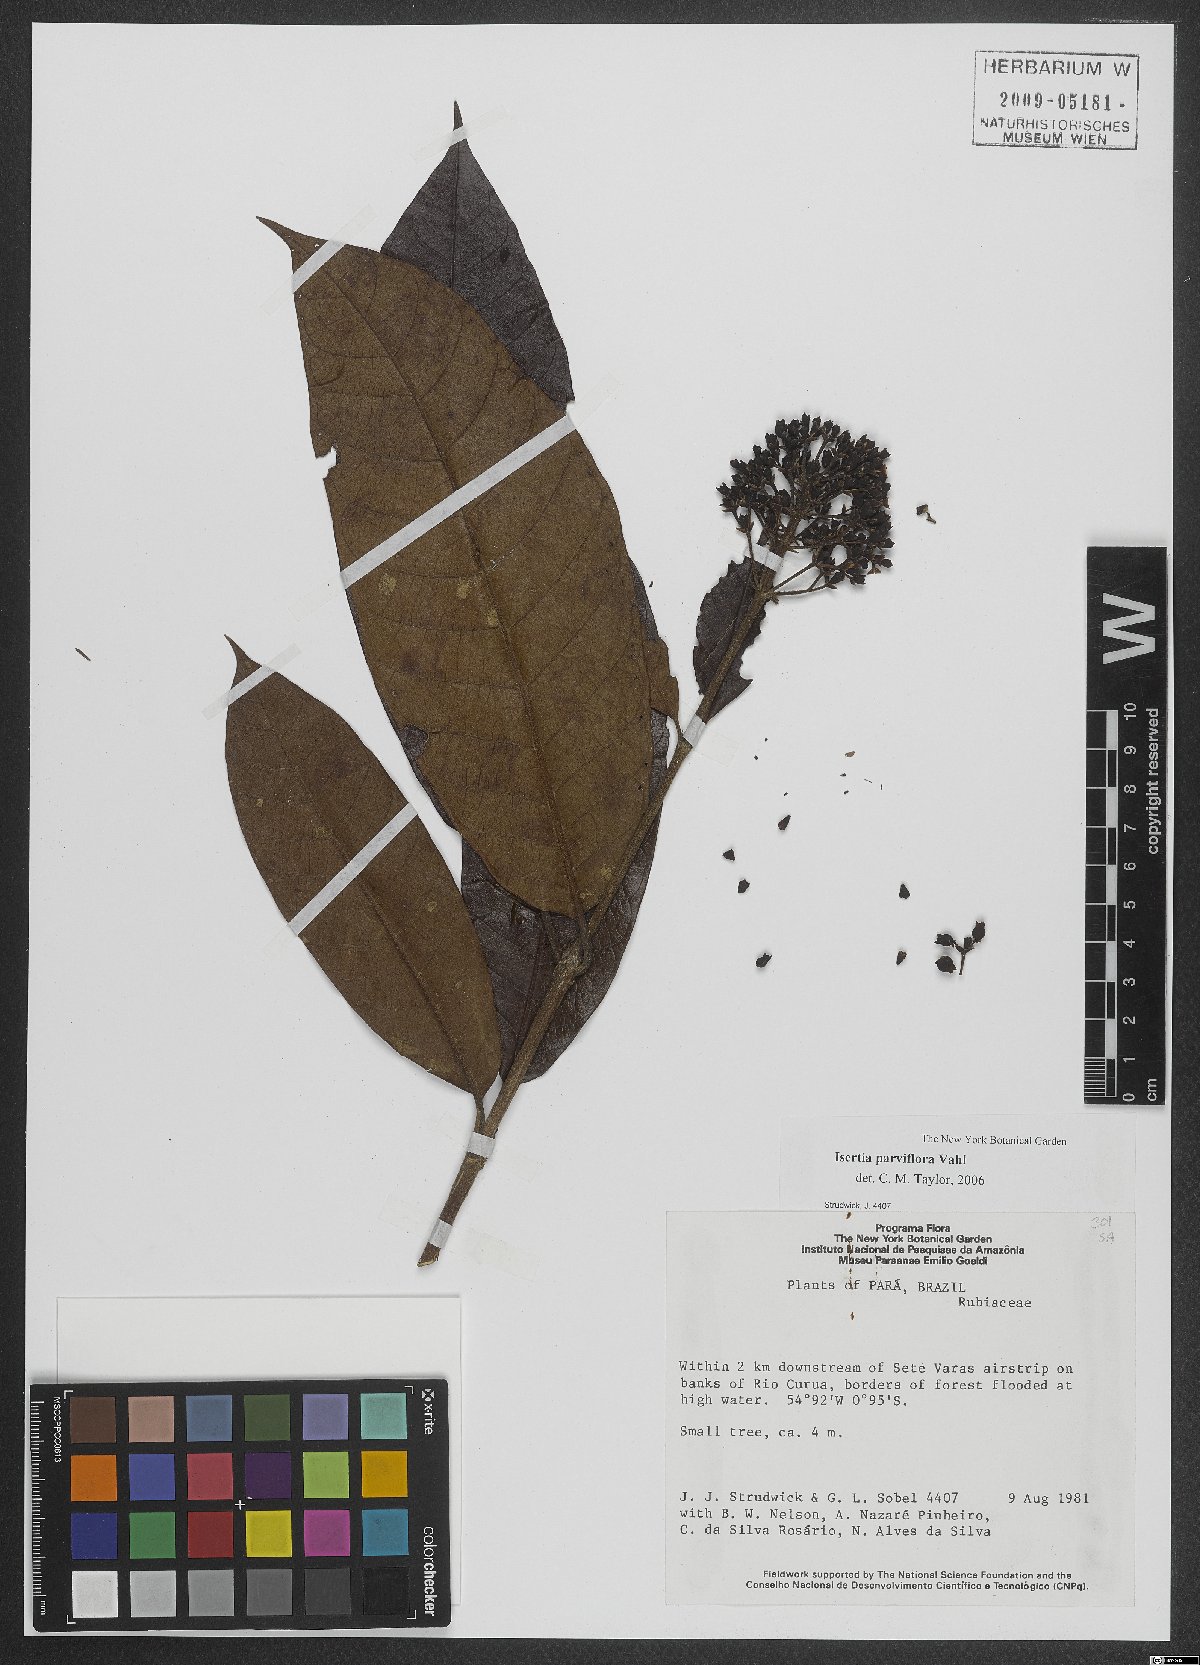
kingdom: Plantae
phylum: Tracheophyta
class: Magnoliopsida
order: Gentianales
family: Rubiaceae
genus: Isertia
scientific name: Isertia parviflora
